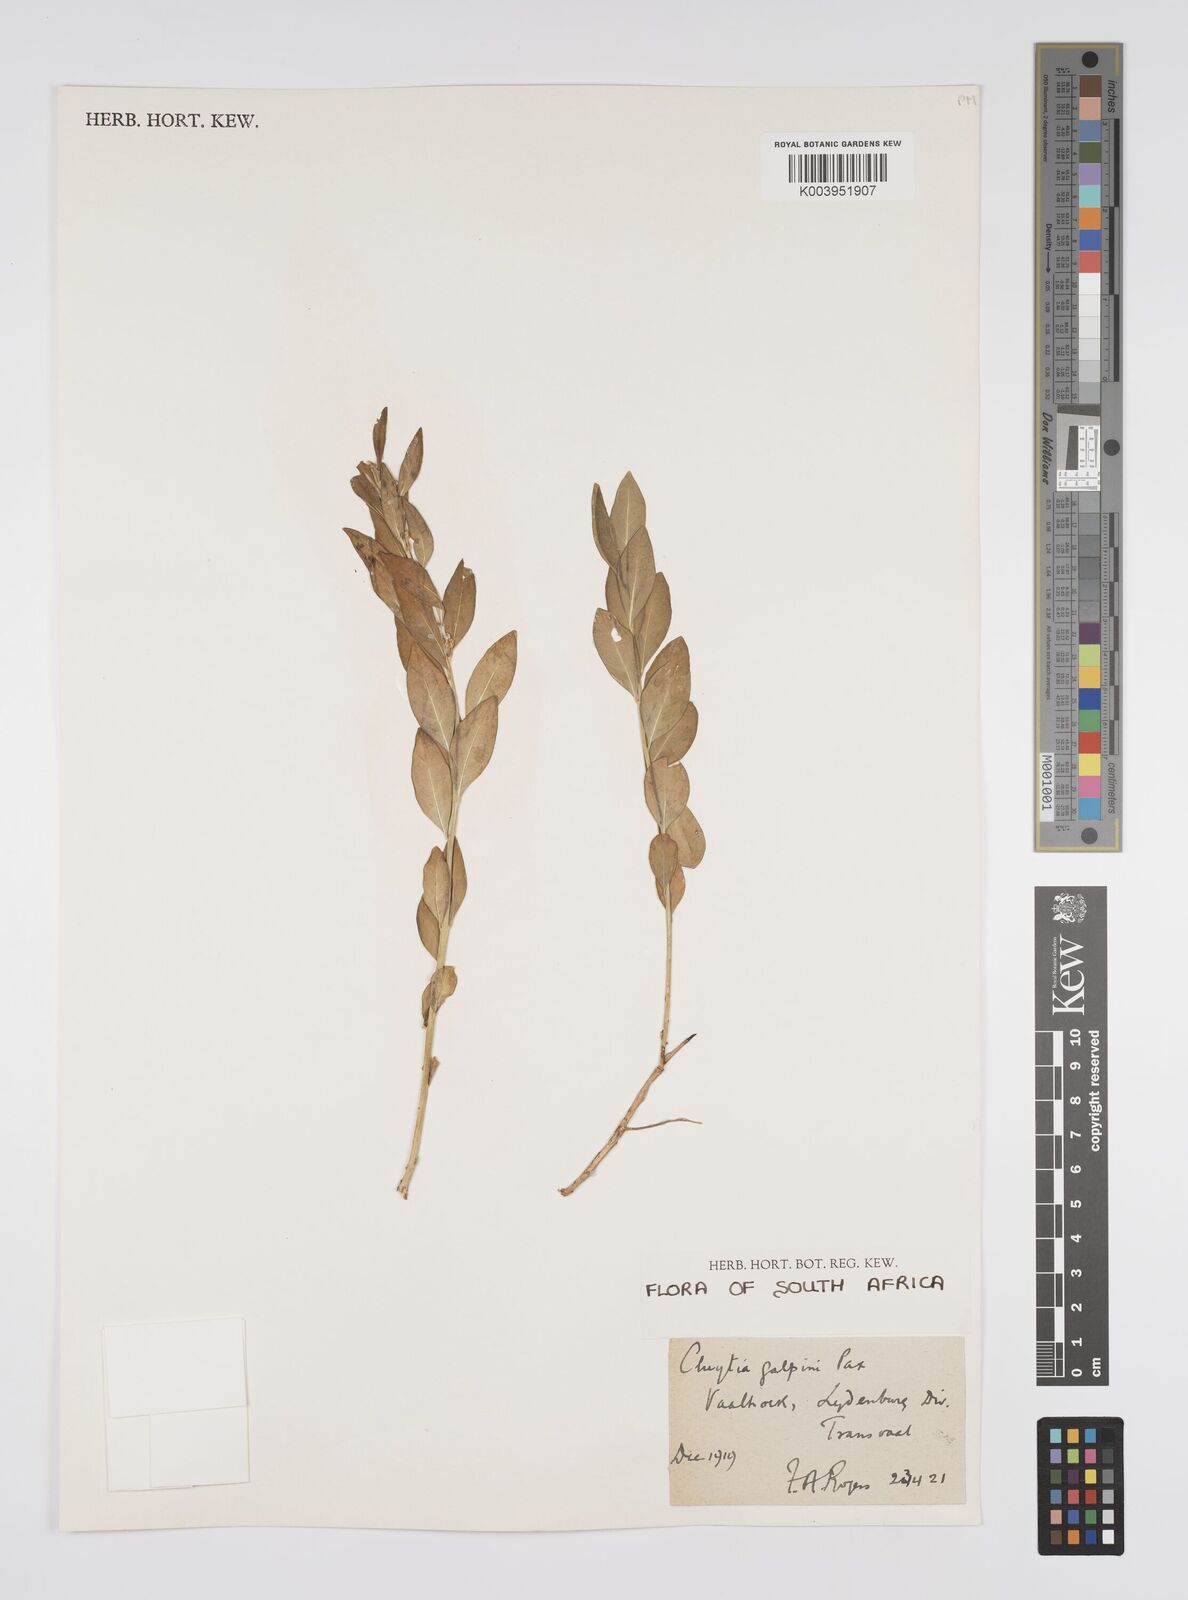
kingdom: Plantae
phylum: Tracheophyta
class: Magnoliopsida
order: Malpighiales
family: Peraceae
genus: Clutia
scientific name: Clutia galpinii
